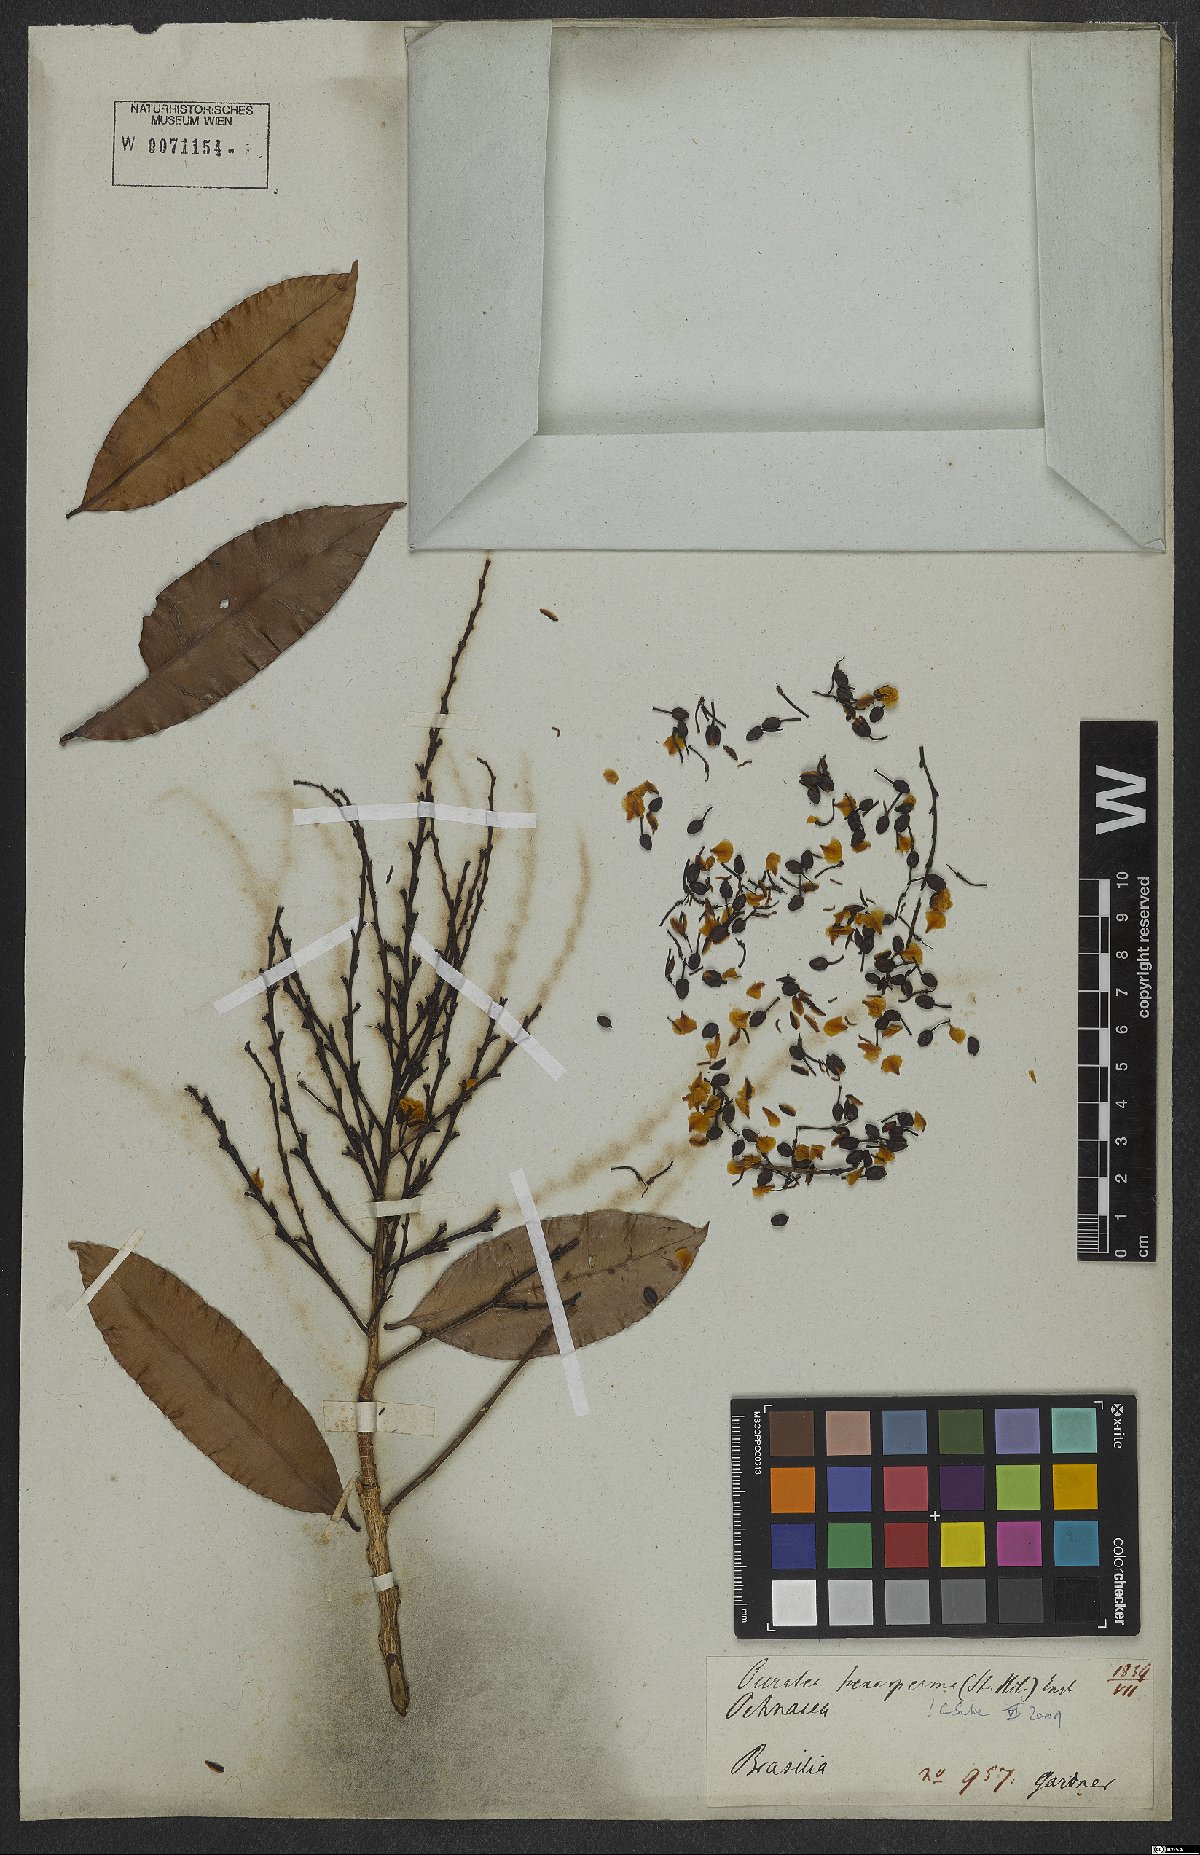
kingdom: Plantae
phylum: Tracheophyta
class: Magnoliopsida
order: Malpighiales
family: Ochnaceae
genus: Ouratea
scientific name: Ouratea hexasperma
